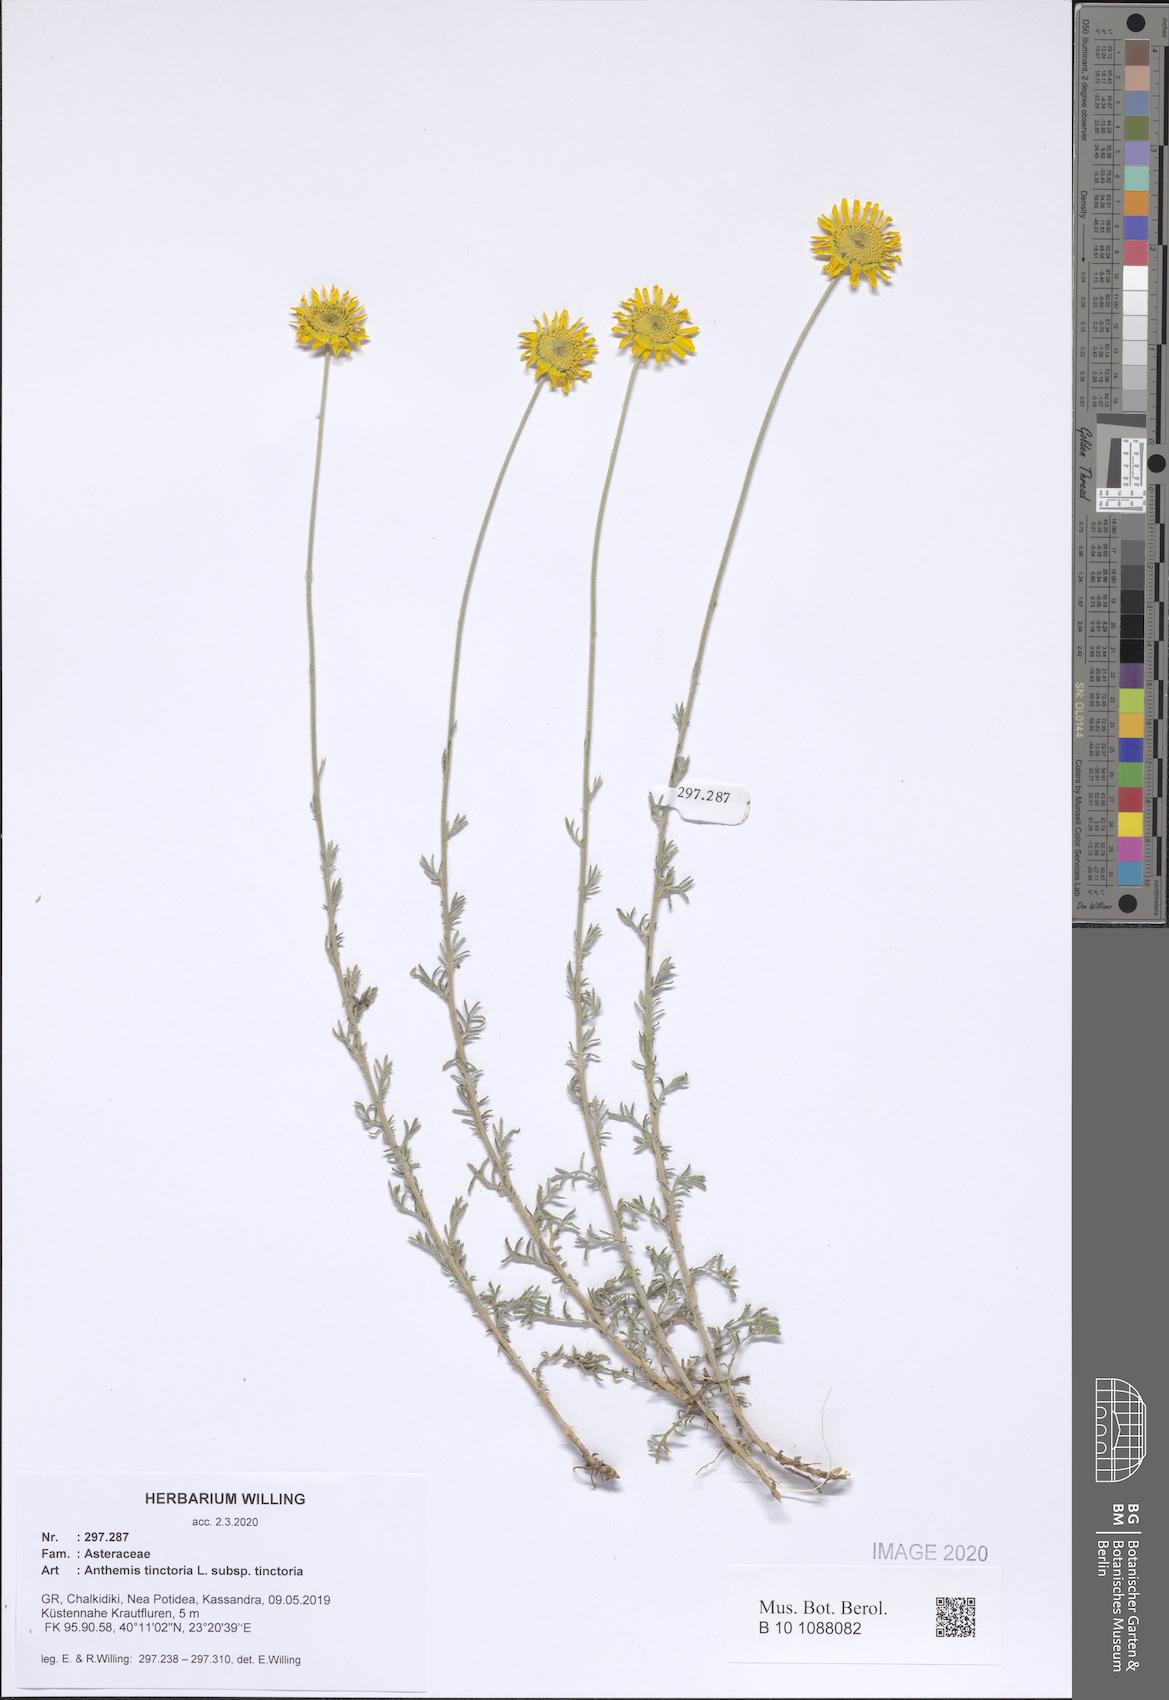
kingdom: Plantae
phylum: Tracheophyta
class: Magnoliopsida
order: Asterales
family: Asteraceae
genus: Cota
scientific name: Cota tinctoria
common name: Golden chamomile
